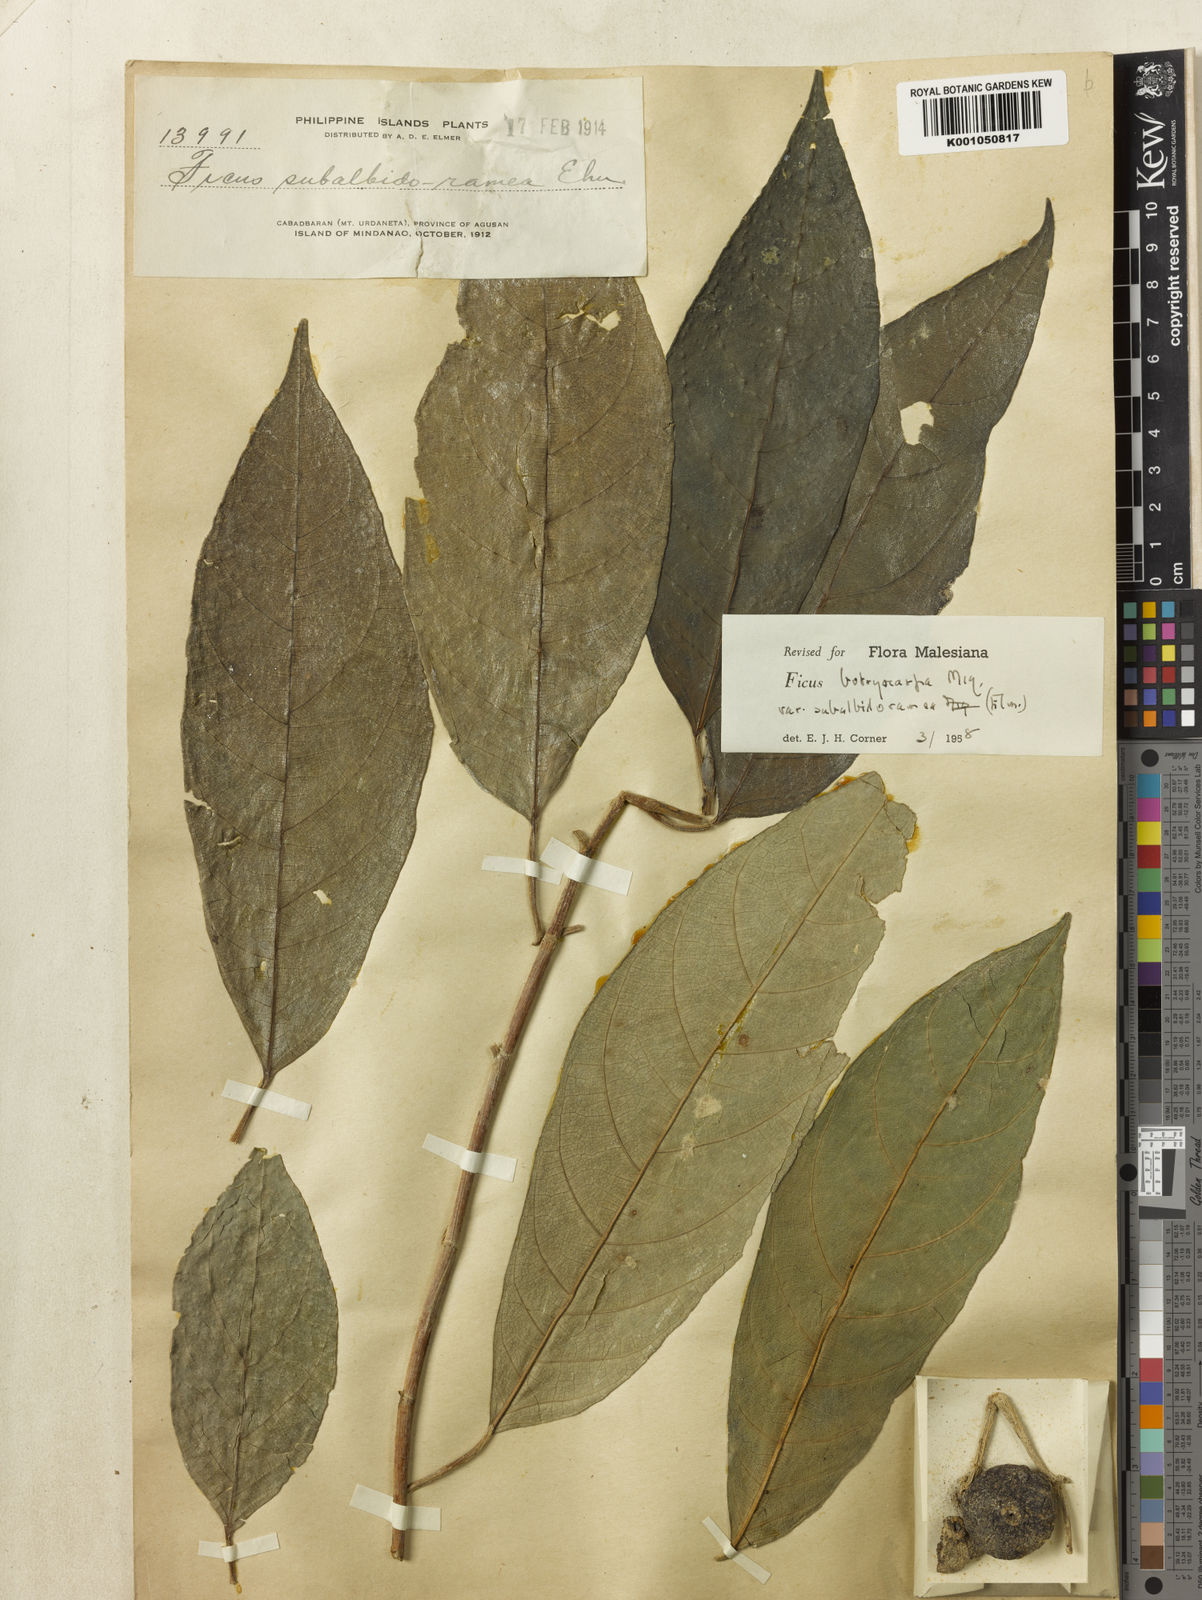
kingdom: Plantae
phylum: Tracheophyta
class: Magnoliopsida
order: Rosales
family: Moraceae
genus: Ficus
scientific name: Ficus botryocarpa
